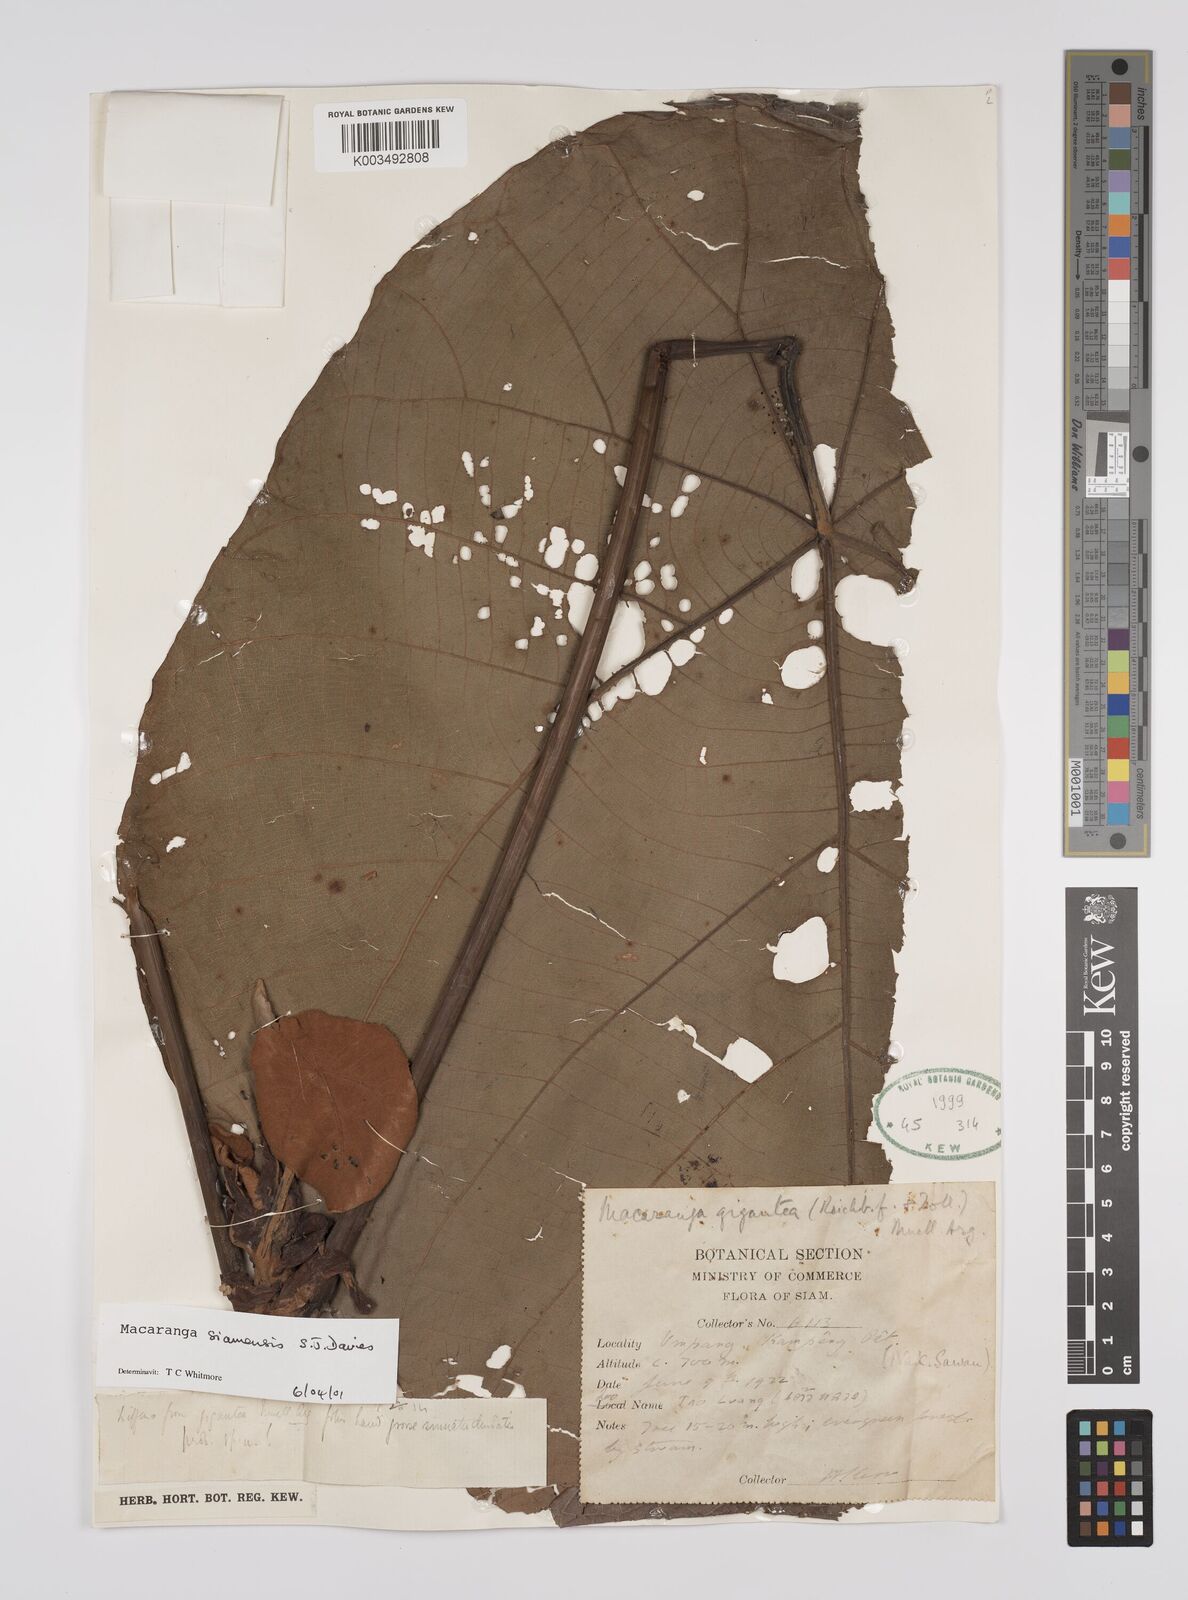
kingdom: Plantae
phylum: Tracheophyta
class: Magnoliopsida
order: Malpighiales
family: Euphorbiaceae
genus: Macaranga
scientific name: Macaranga siamensis
